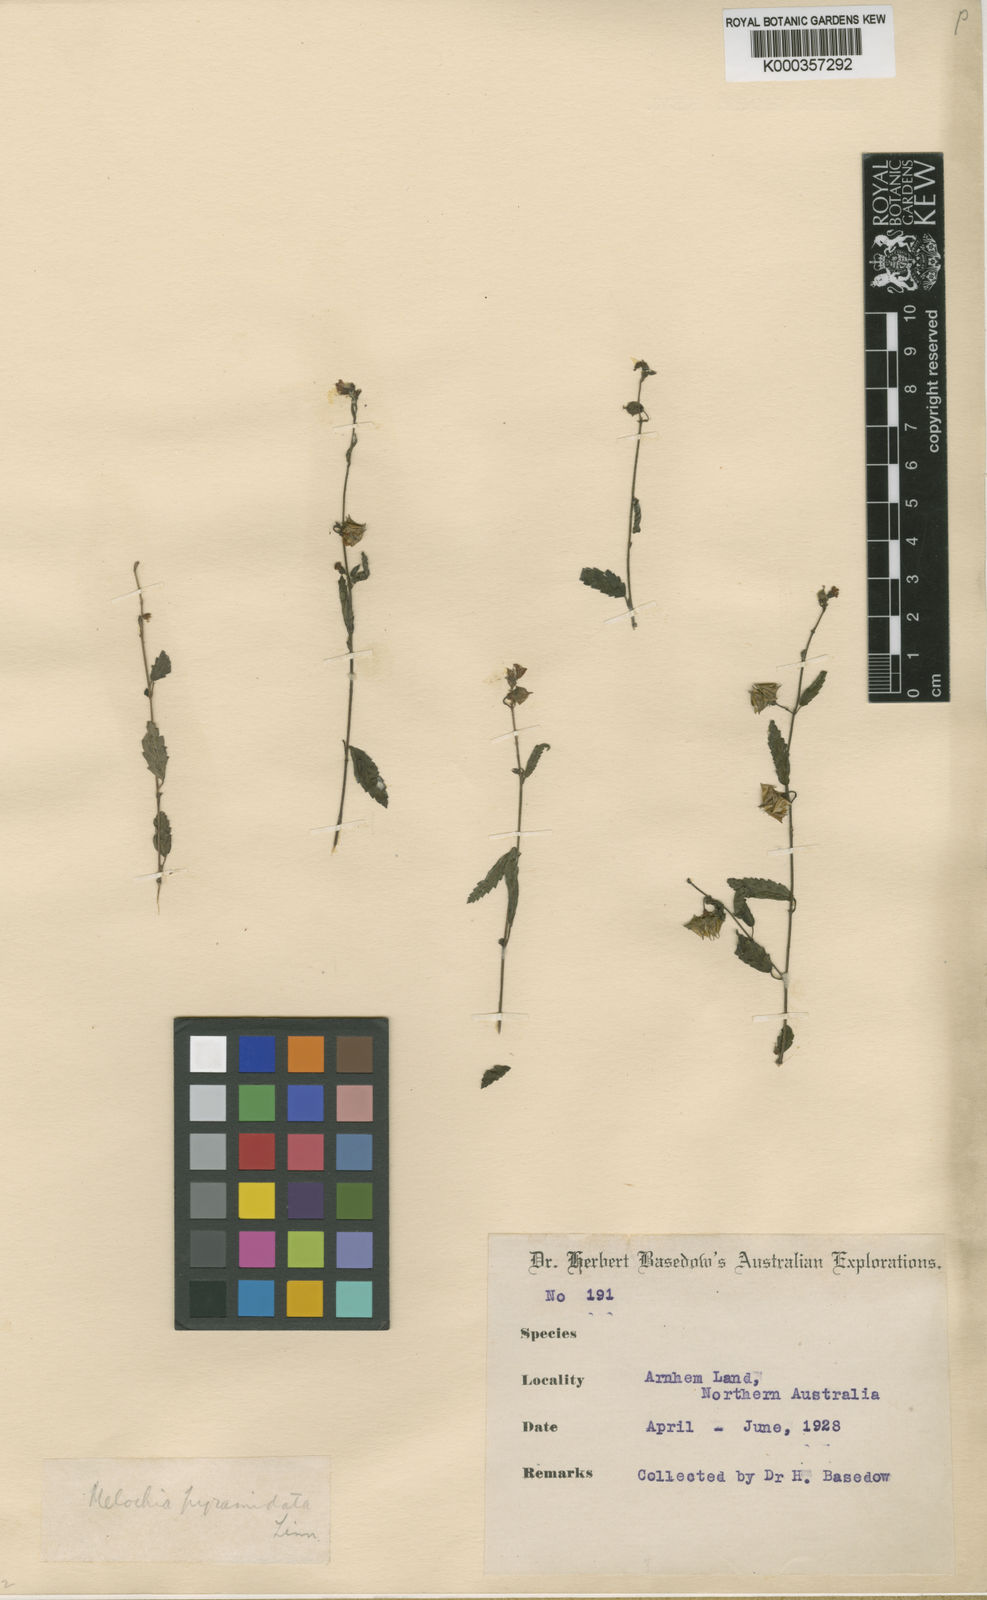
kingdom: Plantae
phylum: Tracheophyta
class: Magnoliopsida
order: Malvales
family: Malvaceae
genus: Melochia
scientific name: Melochia pyramidata
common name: Pyramidflower
